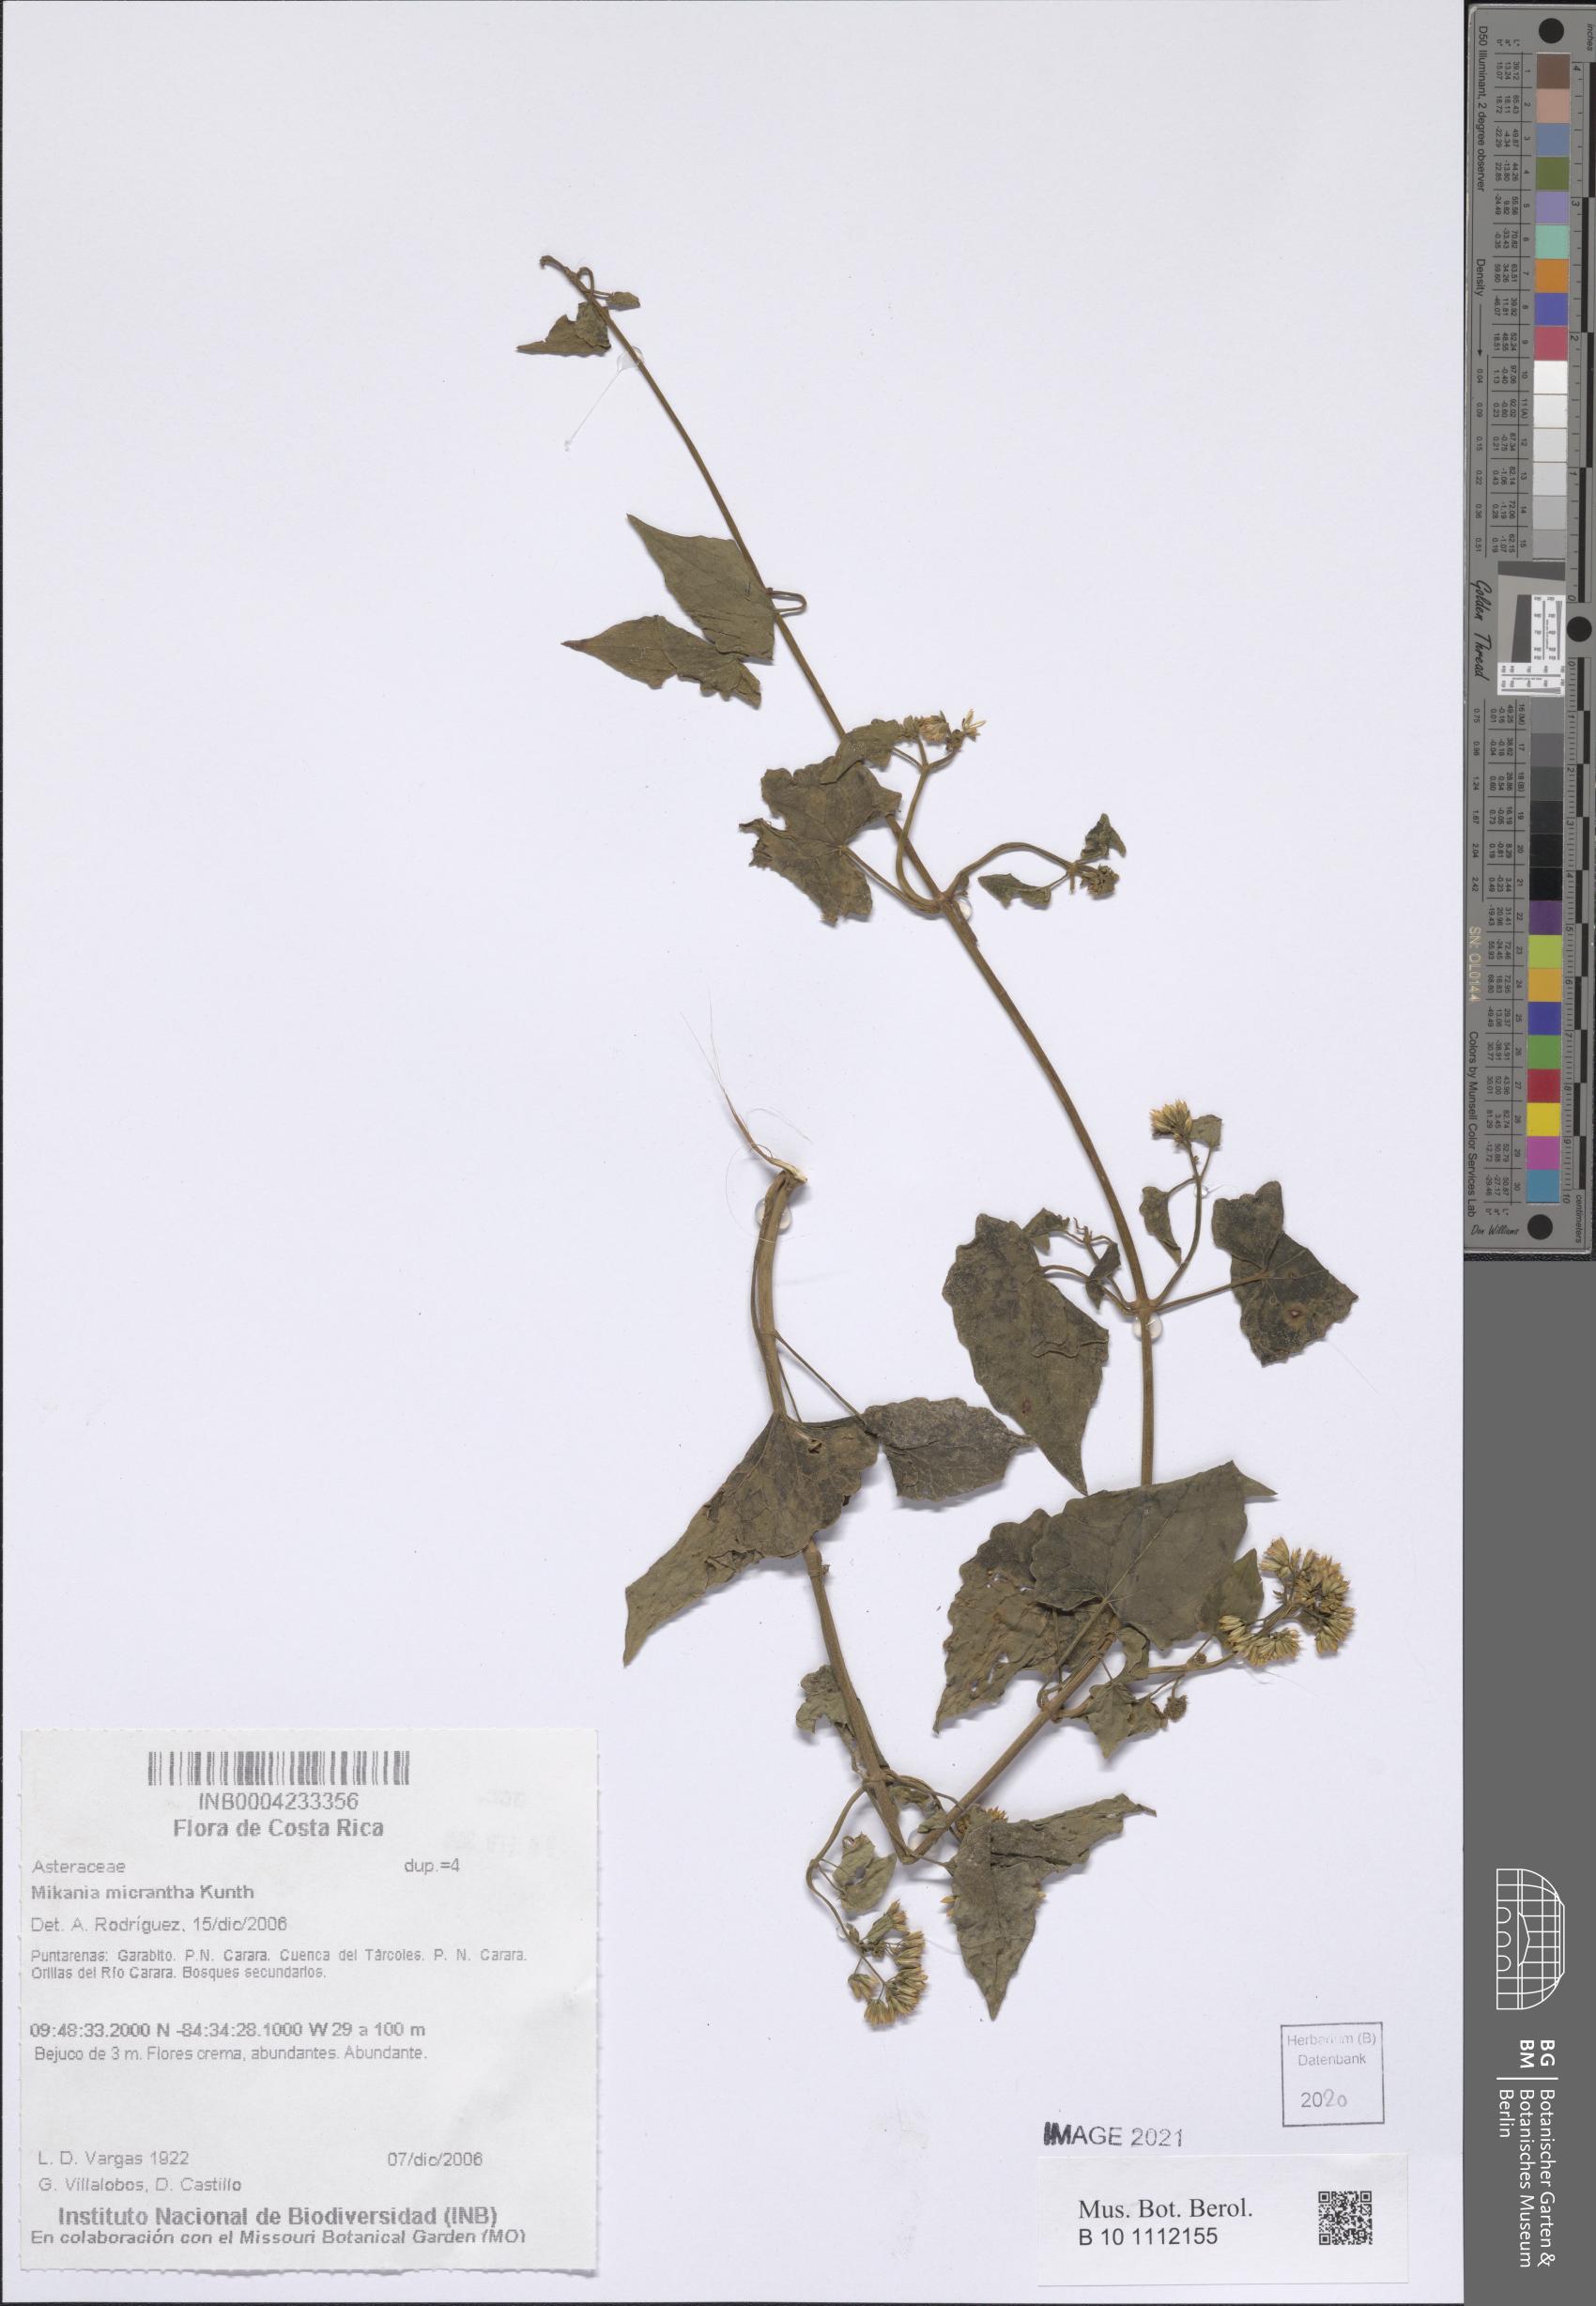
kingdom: Plantae
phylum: Tracheophyta
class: Magnoliopsida
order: Asterales
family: Asteraceae
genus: Mikania
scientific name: Mikania micrantha
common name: Mile-a-minute
